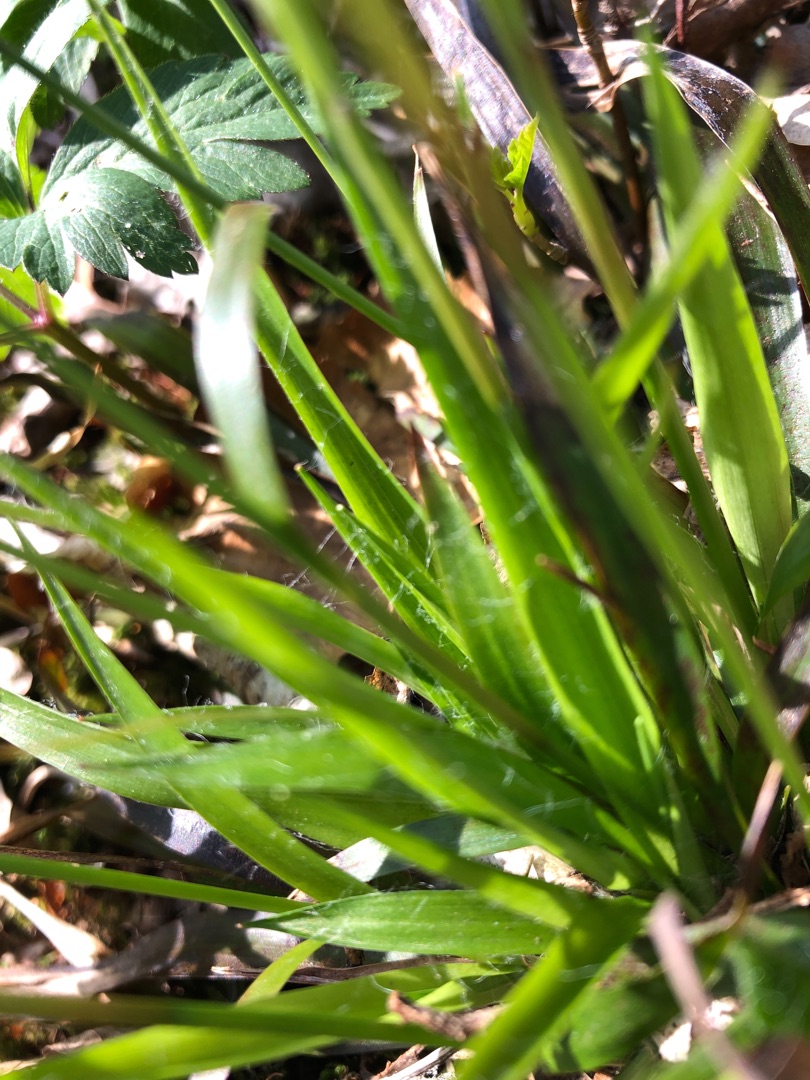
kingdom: Plantae
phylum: Tracheophyta
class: Liliopsida
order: Poales
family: Juncaceae
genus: Luzula
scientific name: Luzula pilosa
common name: Håret frytle
